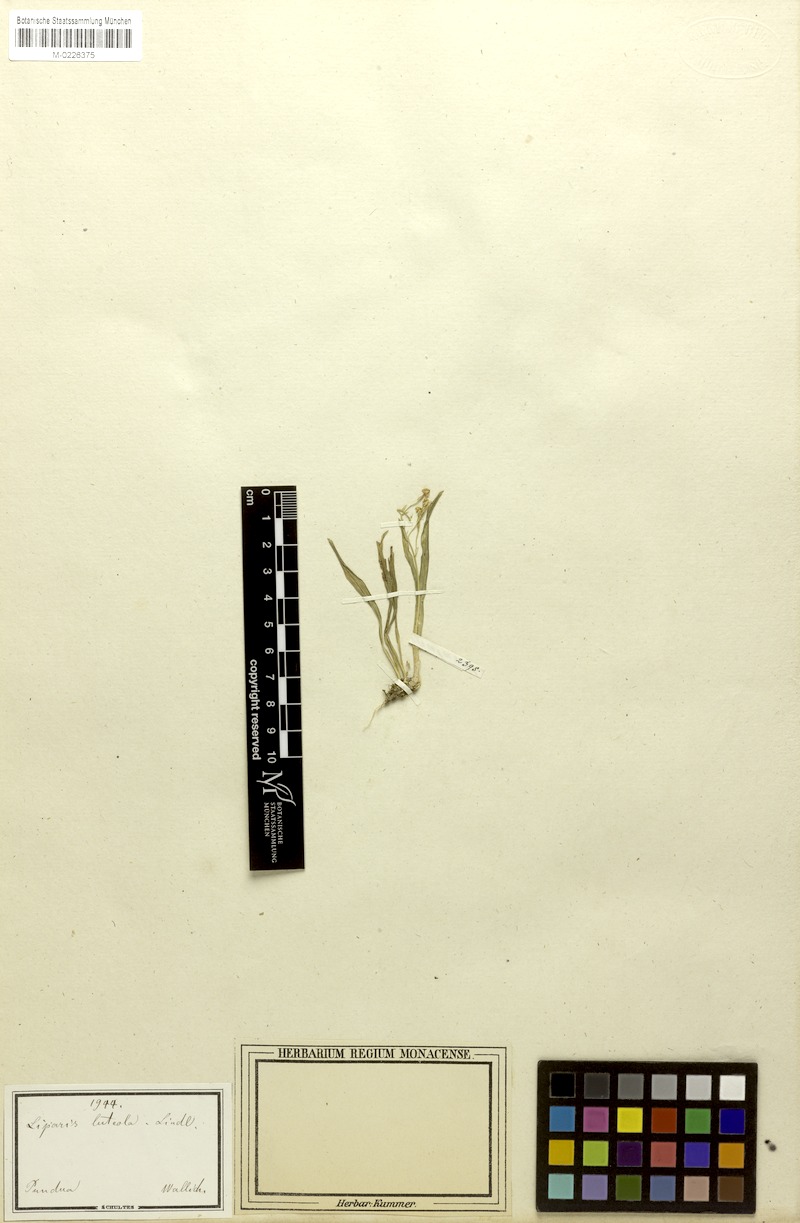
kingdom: Plantae
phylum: Tracheophyta
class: Liliopsida
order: Asparagales
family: Orchidaceae
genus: Liparis
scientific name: Liparis luteola
